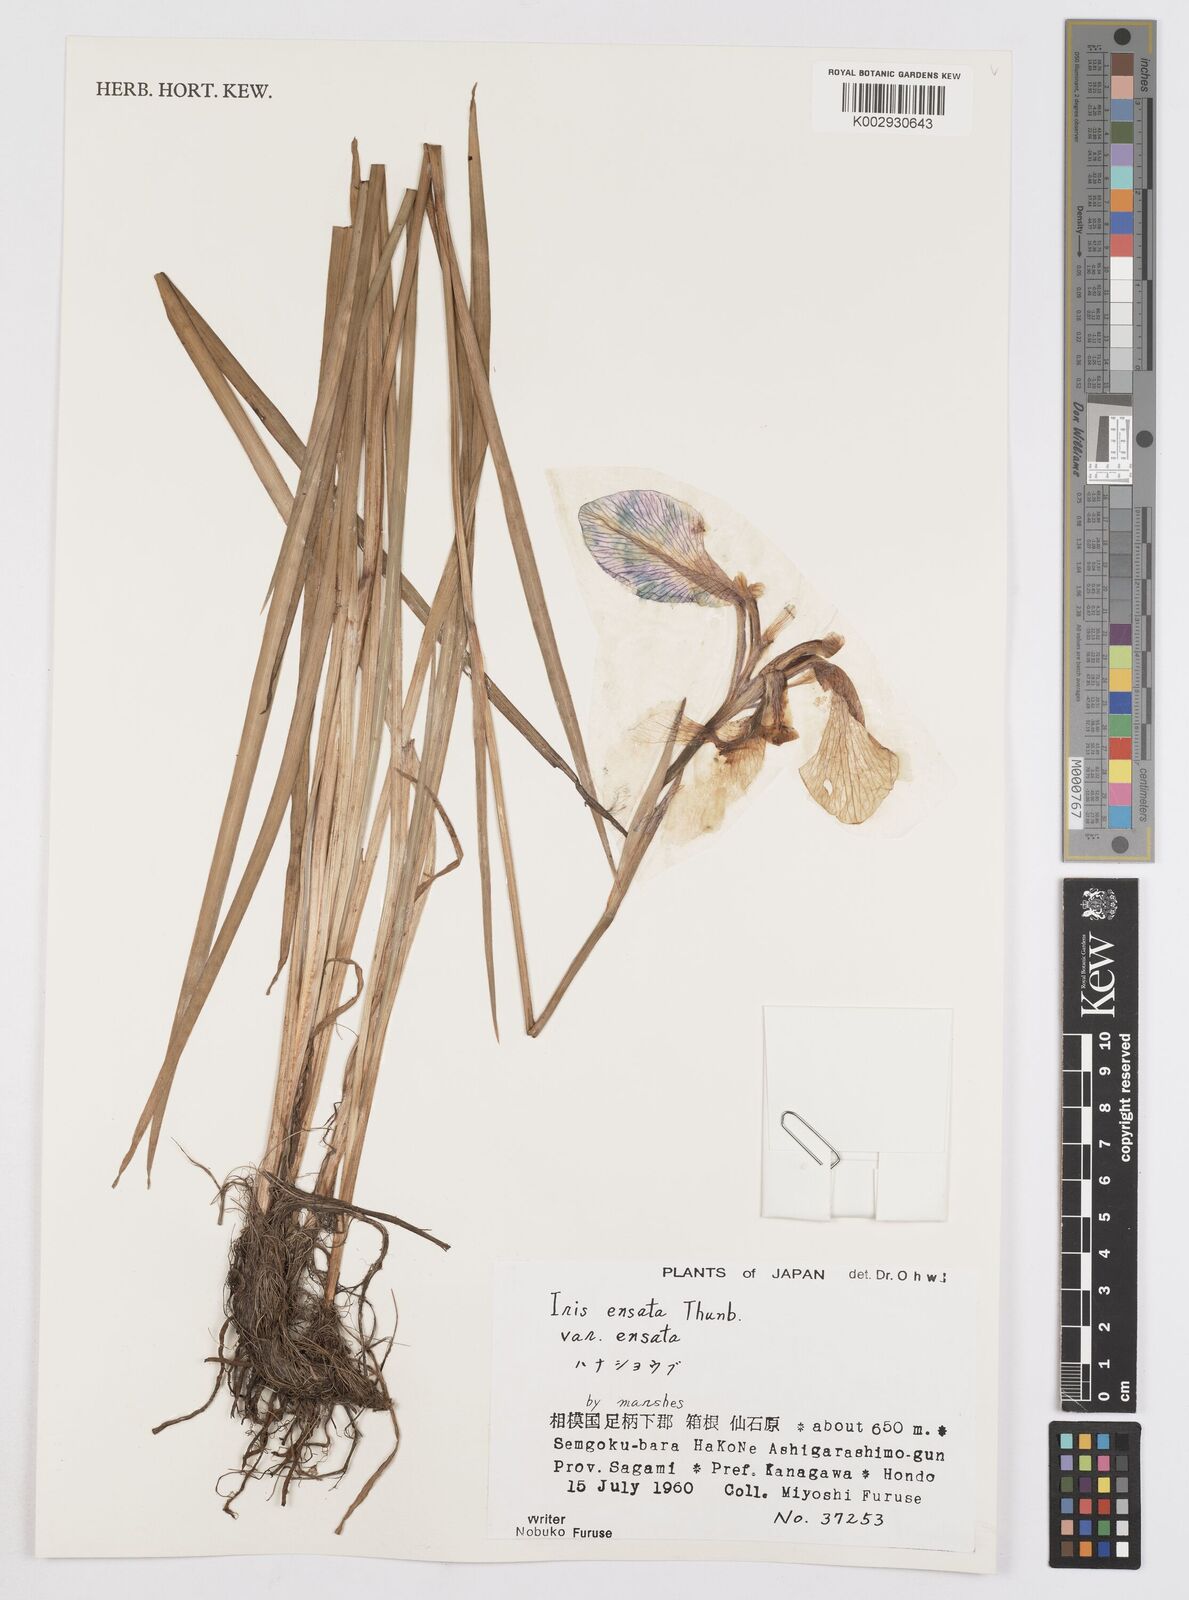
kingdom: Plantae
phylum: Tracheophyta
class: Liliopsida
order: Asparagales
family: Iridaceae
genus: Iris
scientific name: Iris lactea
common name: White-flower chinese iris
